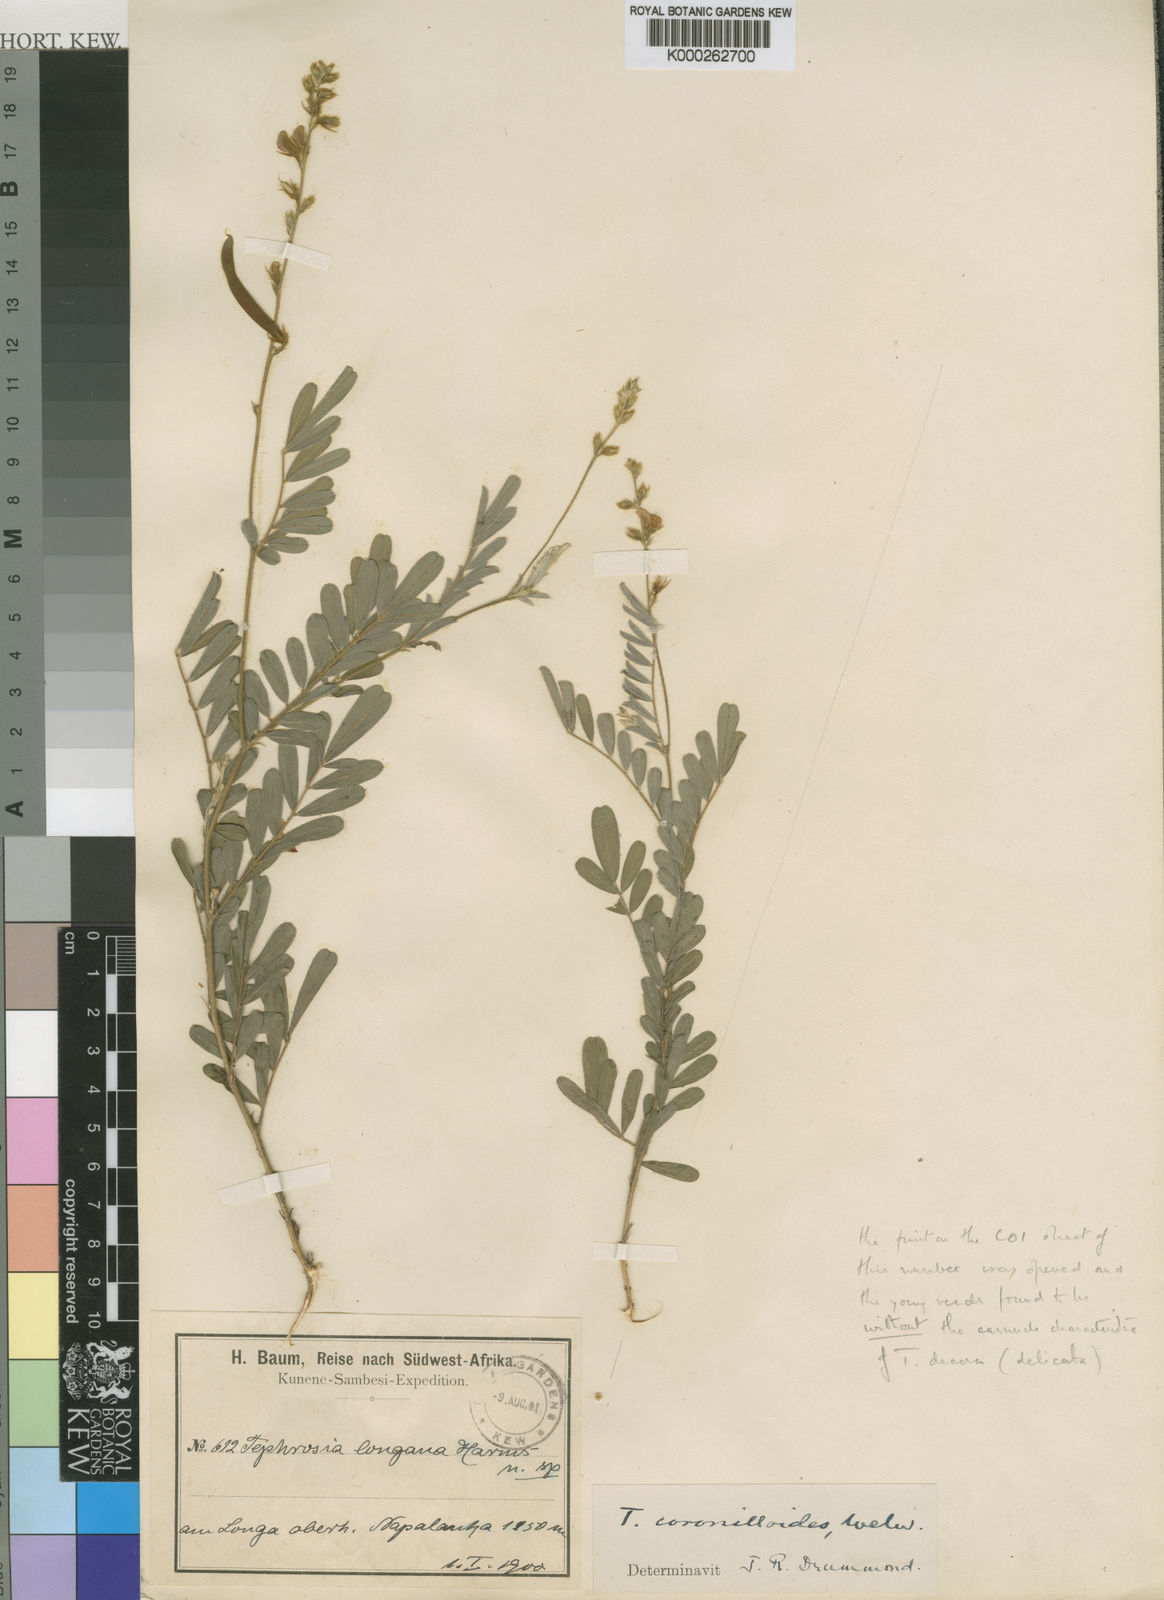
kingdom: Plantae
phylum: Tracheophyta
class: Magnoliopsida
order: Fabales
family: Fabaceae
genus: Tephrosia
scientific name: Tephrosia coronilloides
